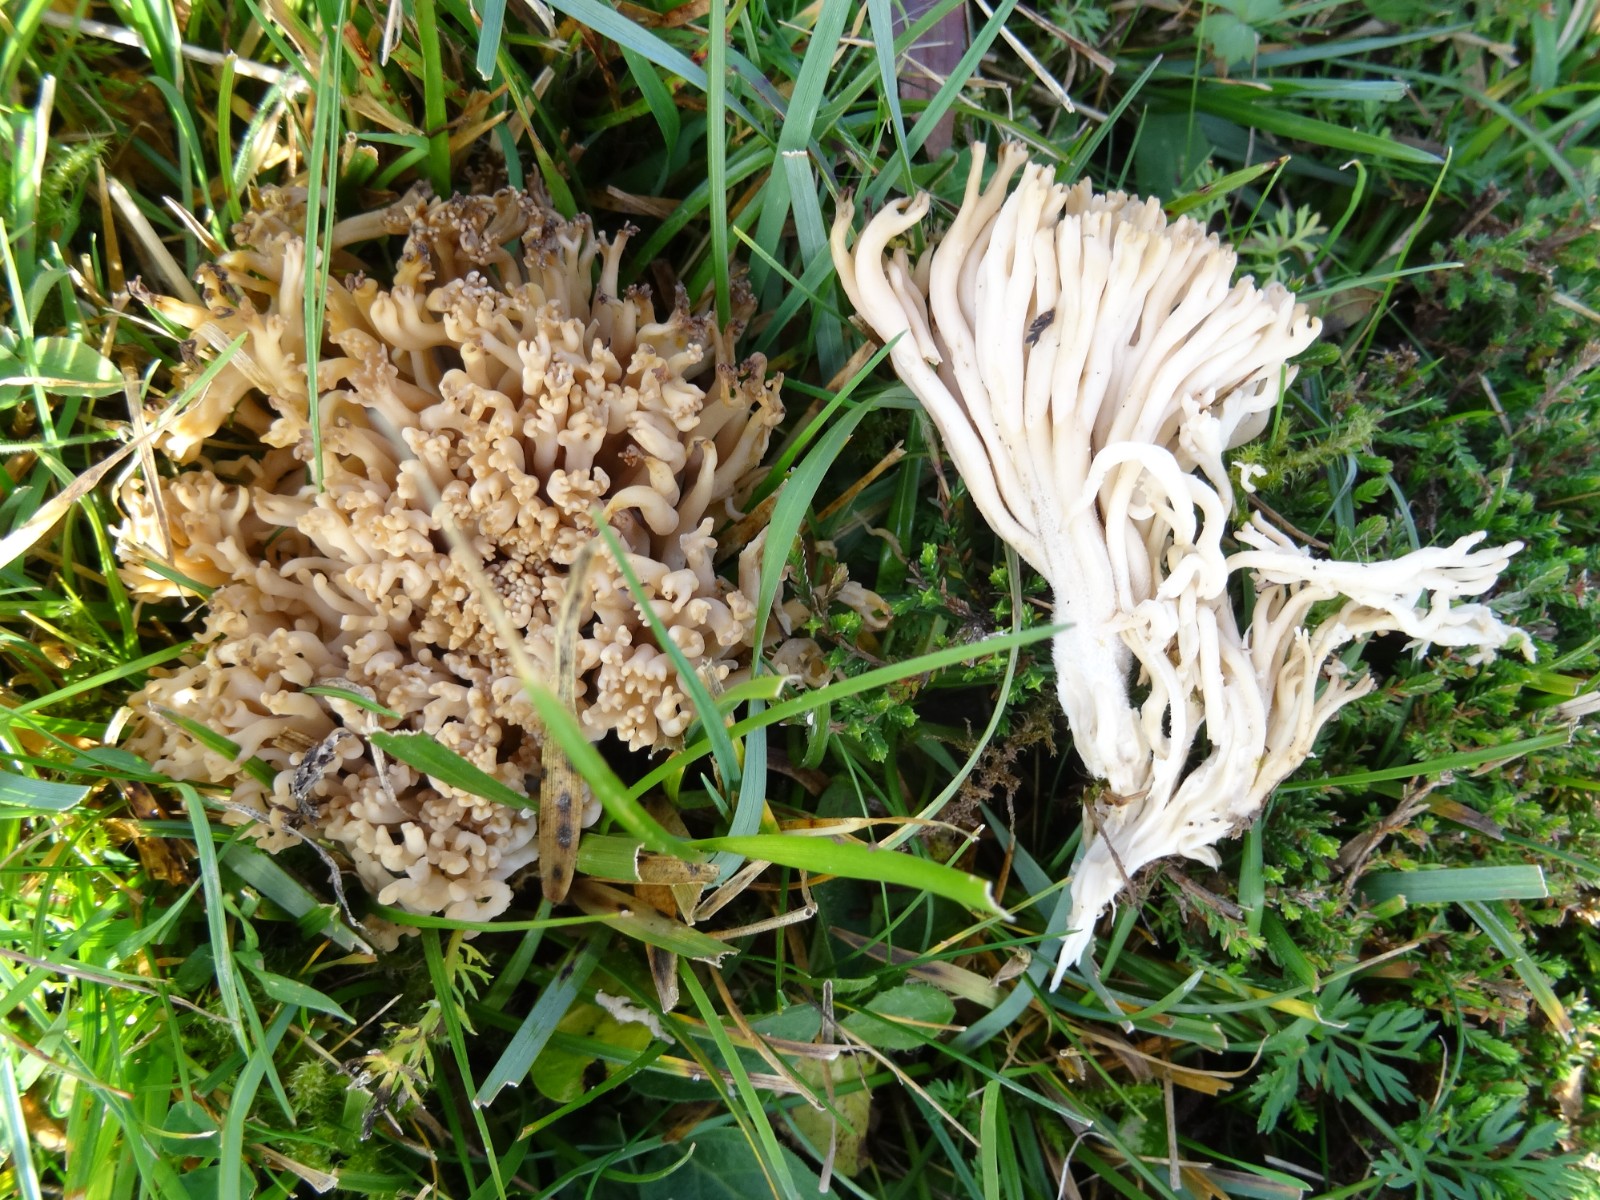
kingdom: Fungi
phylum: Basidiomycota
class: Agaricomycetes
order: Agaricales
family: Clavariaceae
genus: Clavulinopsis
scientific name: Clavulinopsis umbrinella
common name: gulgrå køllesvamp
